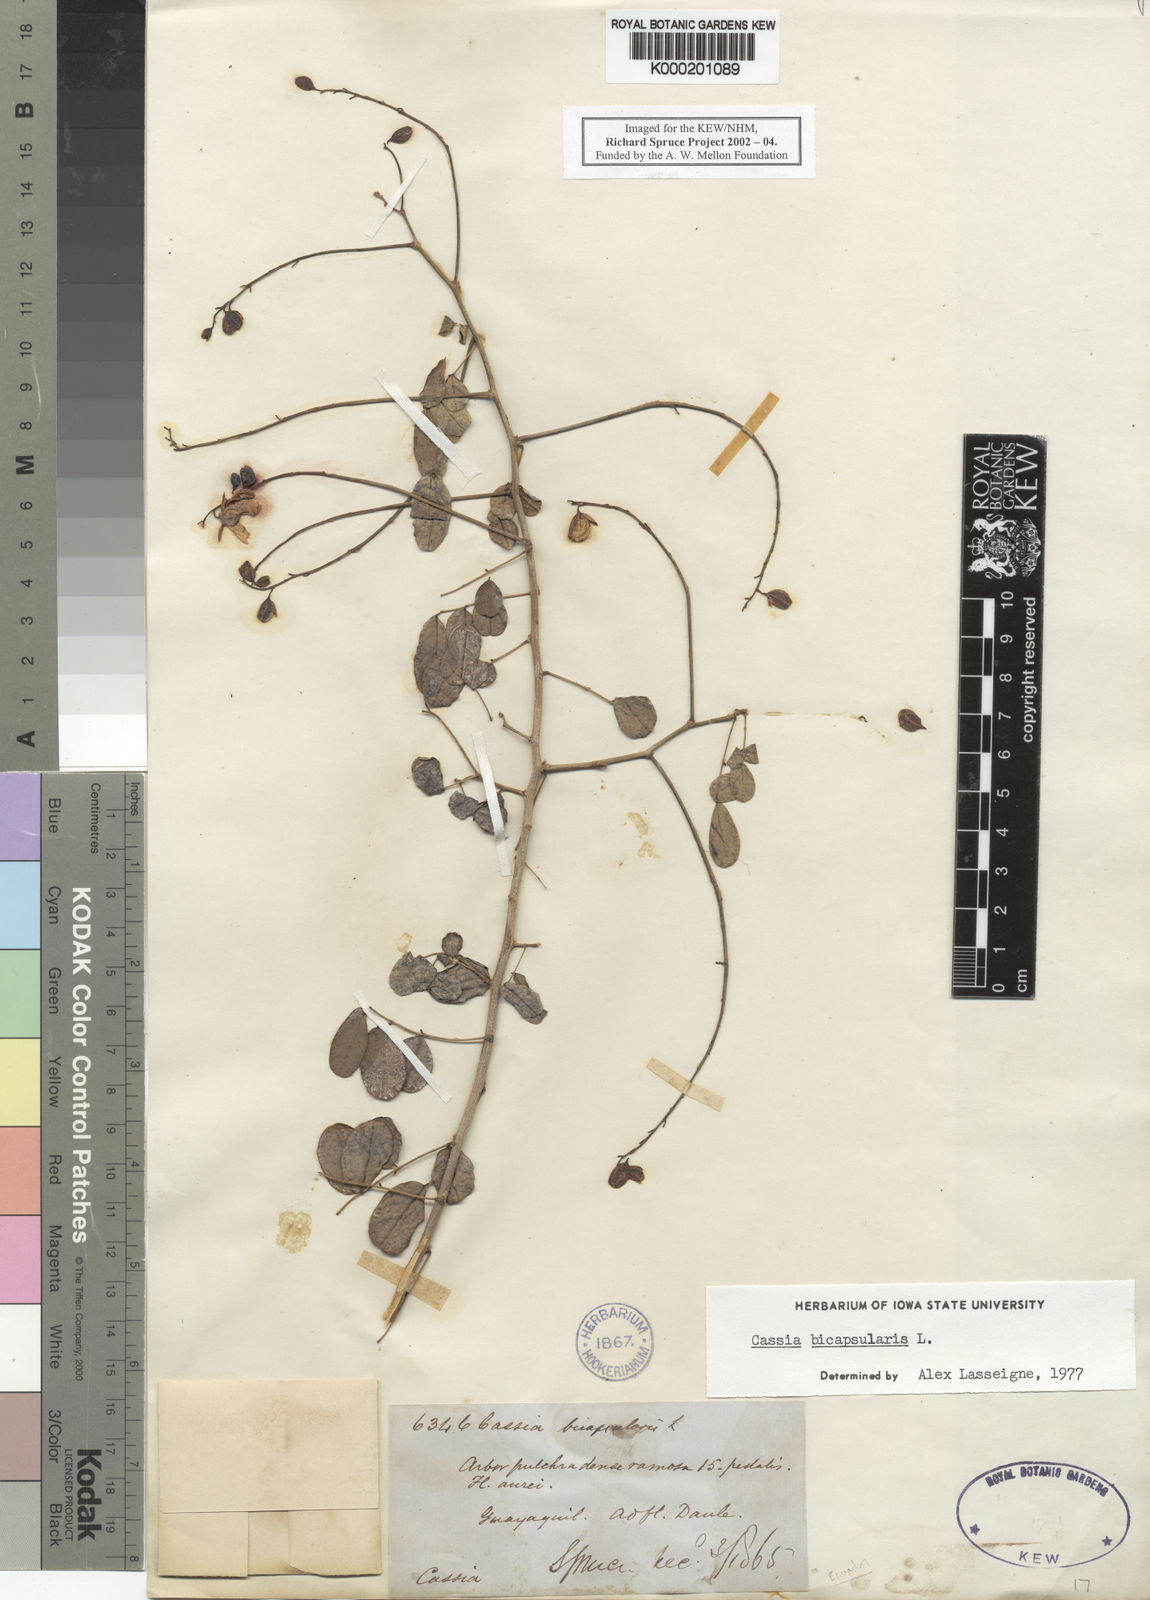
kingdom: Plantae
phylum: Tracheophyta
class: Magnoliopsida
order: Fabales
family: Fabaceae
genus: Senna
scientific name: Senna bicapsularis
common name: Christmasbush
